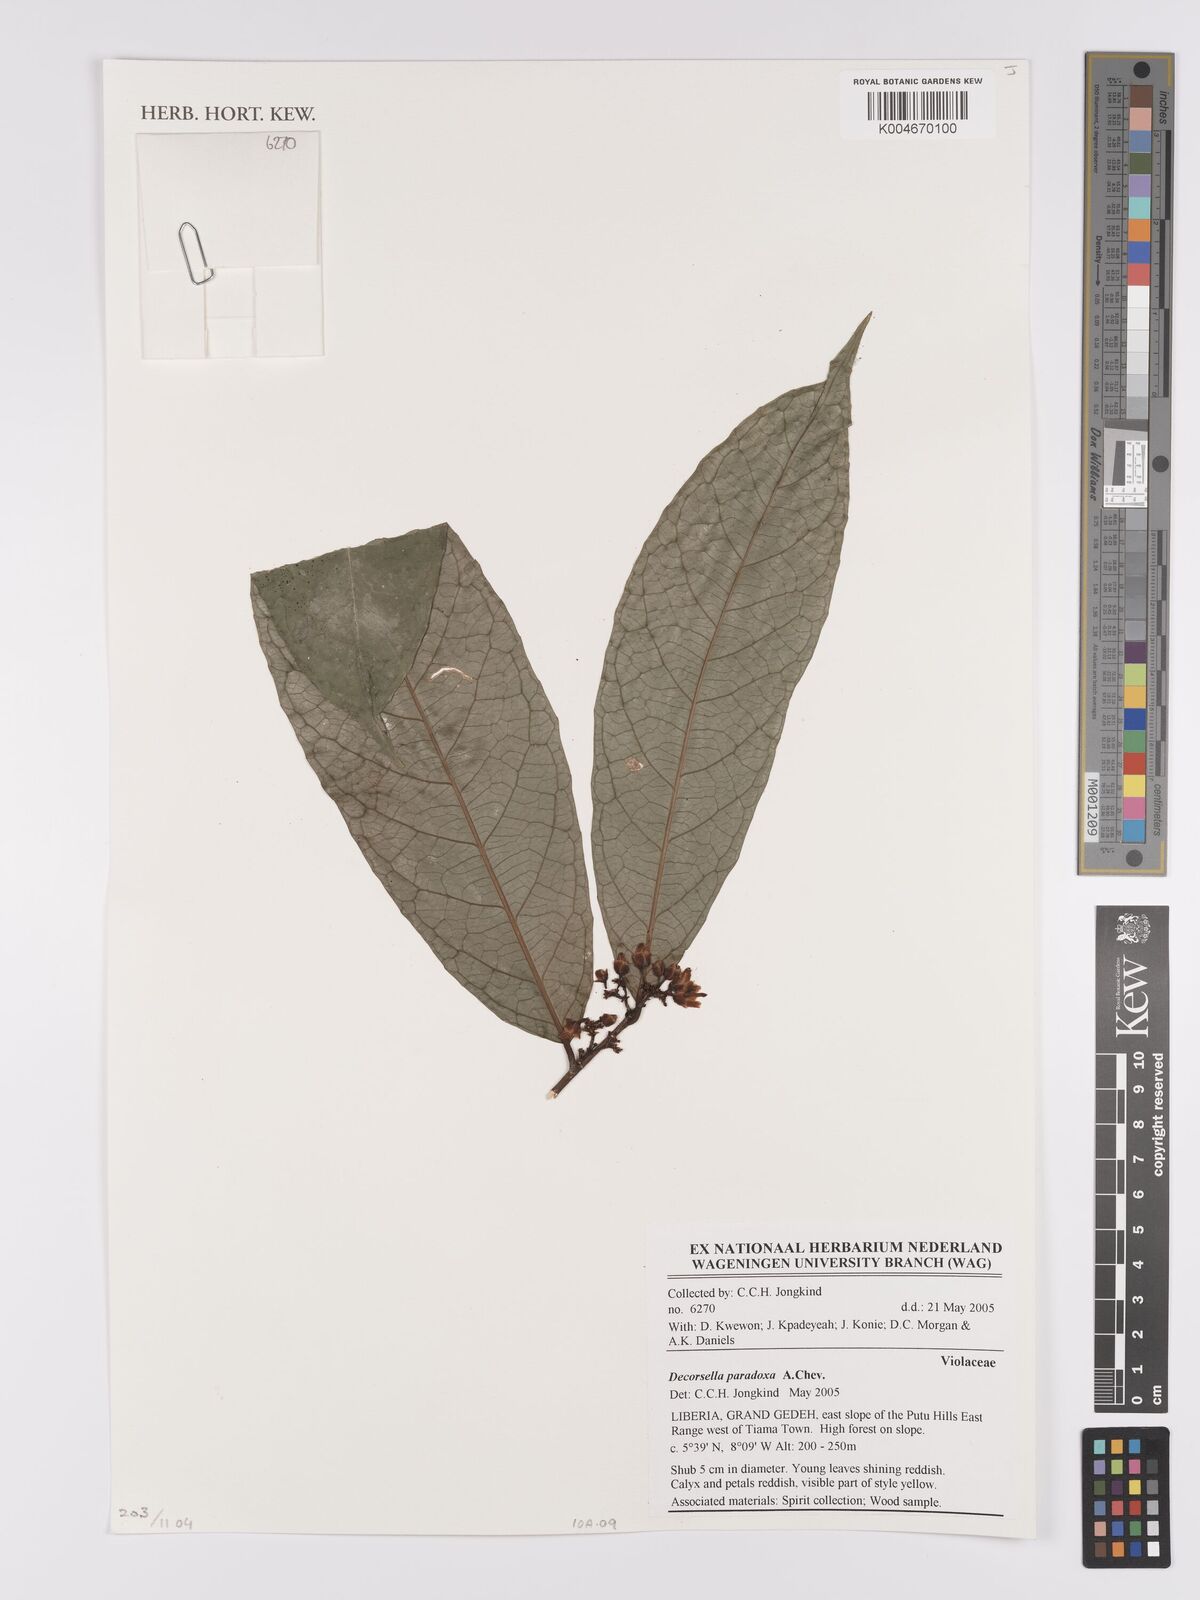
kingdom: Plantae
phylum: Tracheophyta
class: Magnoliopsida
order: Malpighiales
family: Violaceae
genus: Decorsella
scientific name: Decorsella paradoxa
